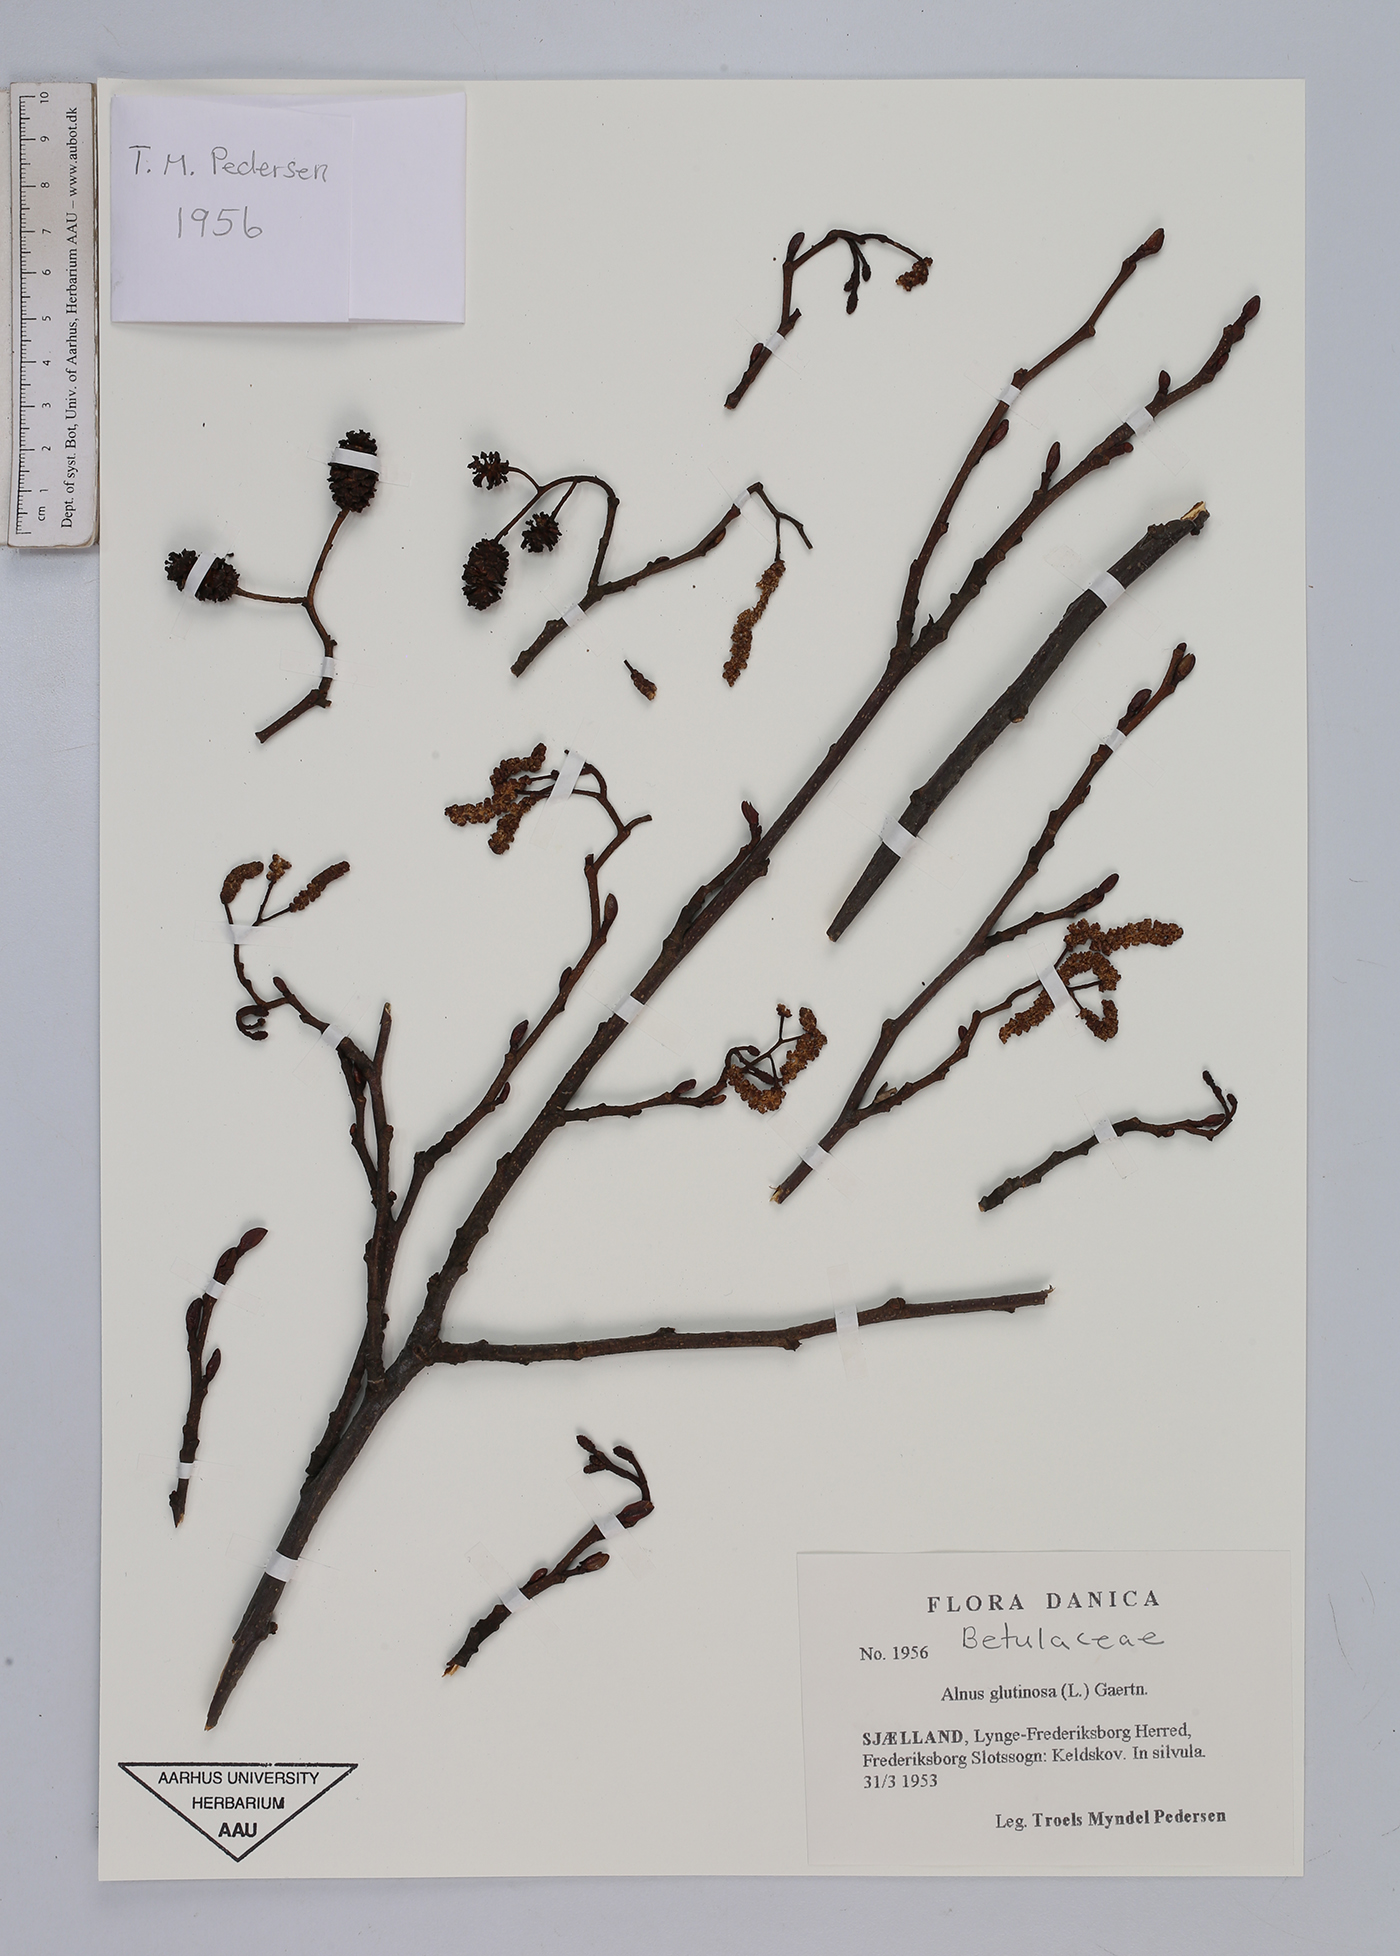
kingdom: Plantae
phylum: Tracheophyta
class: Magnoliopsida
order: Fagales
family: Betulaceae
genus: Alnus
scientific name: Alnus glutinosa
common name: Black alder
